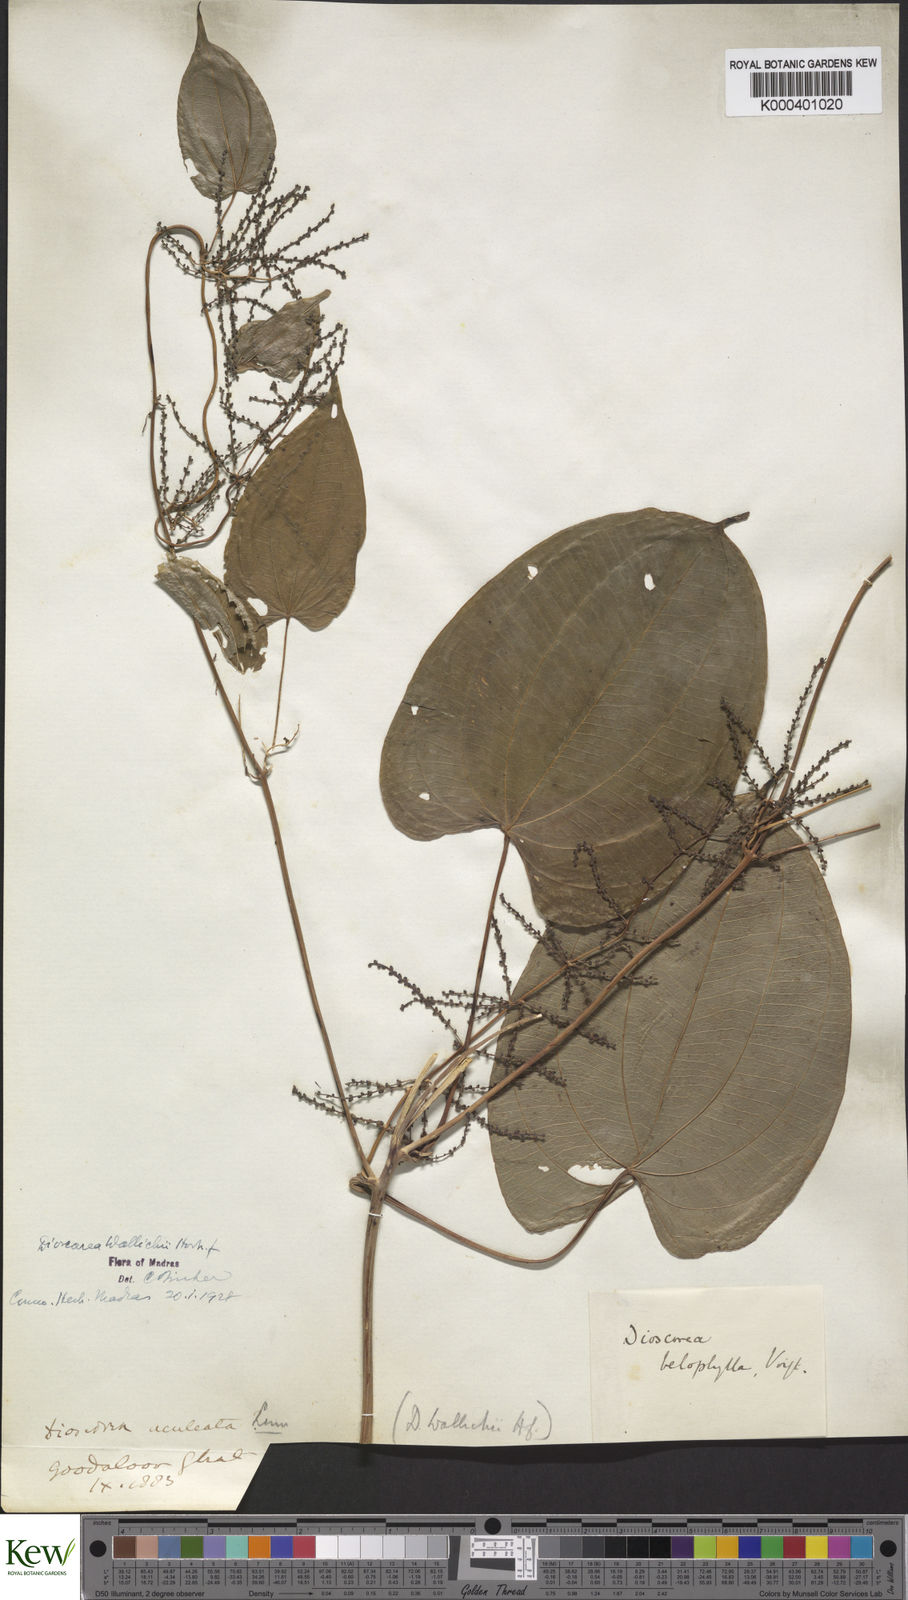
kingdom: Plantae
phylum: Tracheophyta
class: Liliopsida
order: Dioscoreales
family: Dioscoreaceae
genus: Dioscorea
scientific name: Dioscorea wallichii
